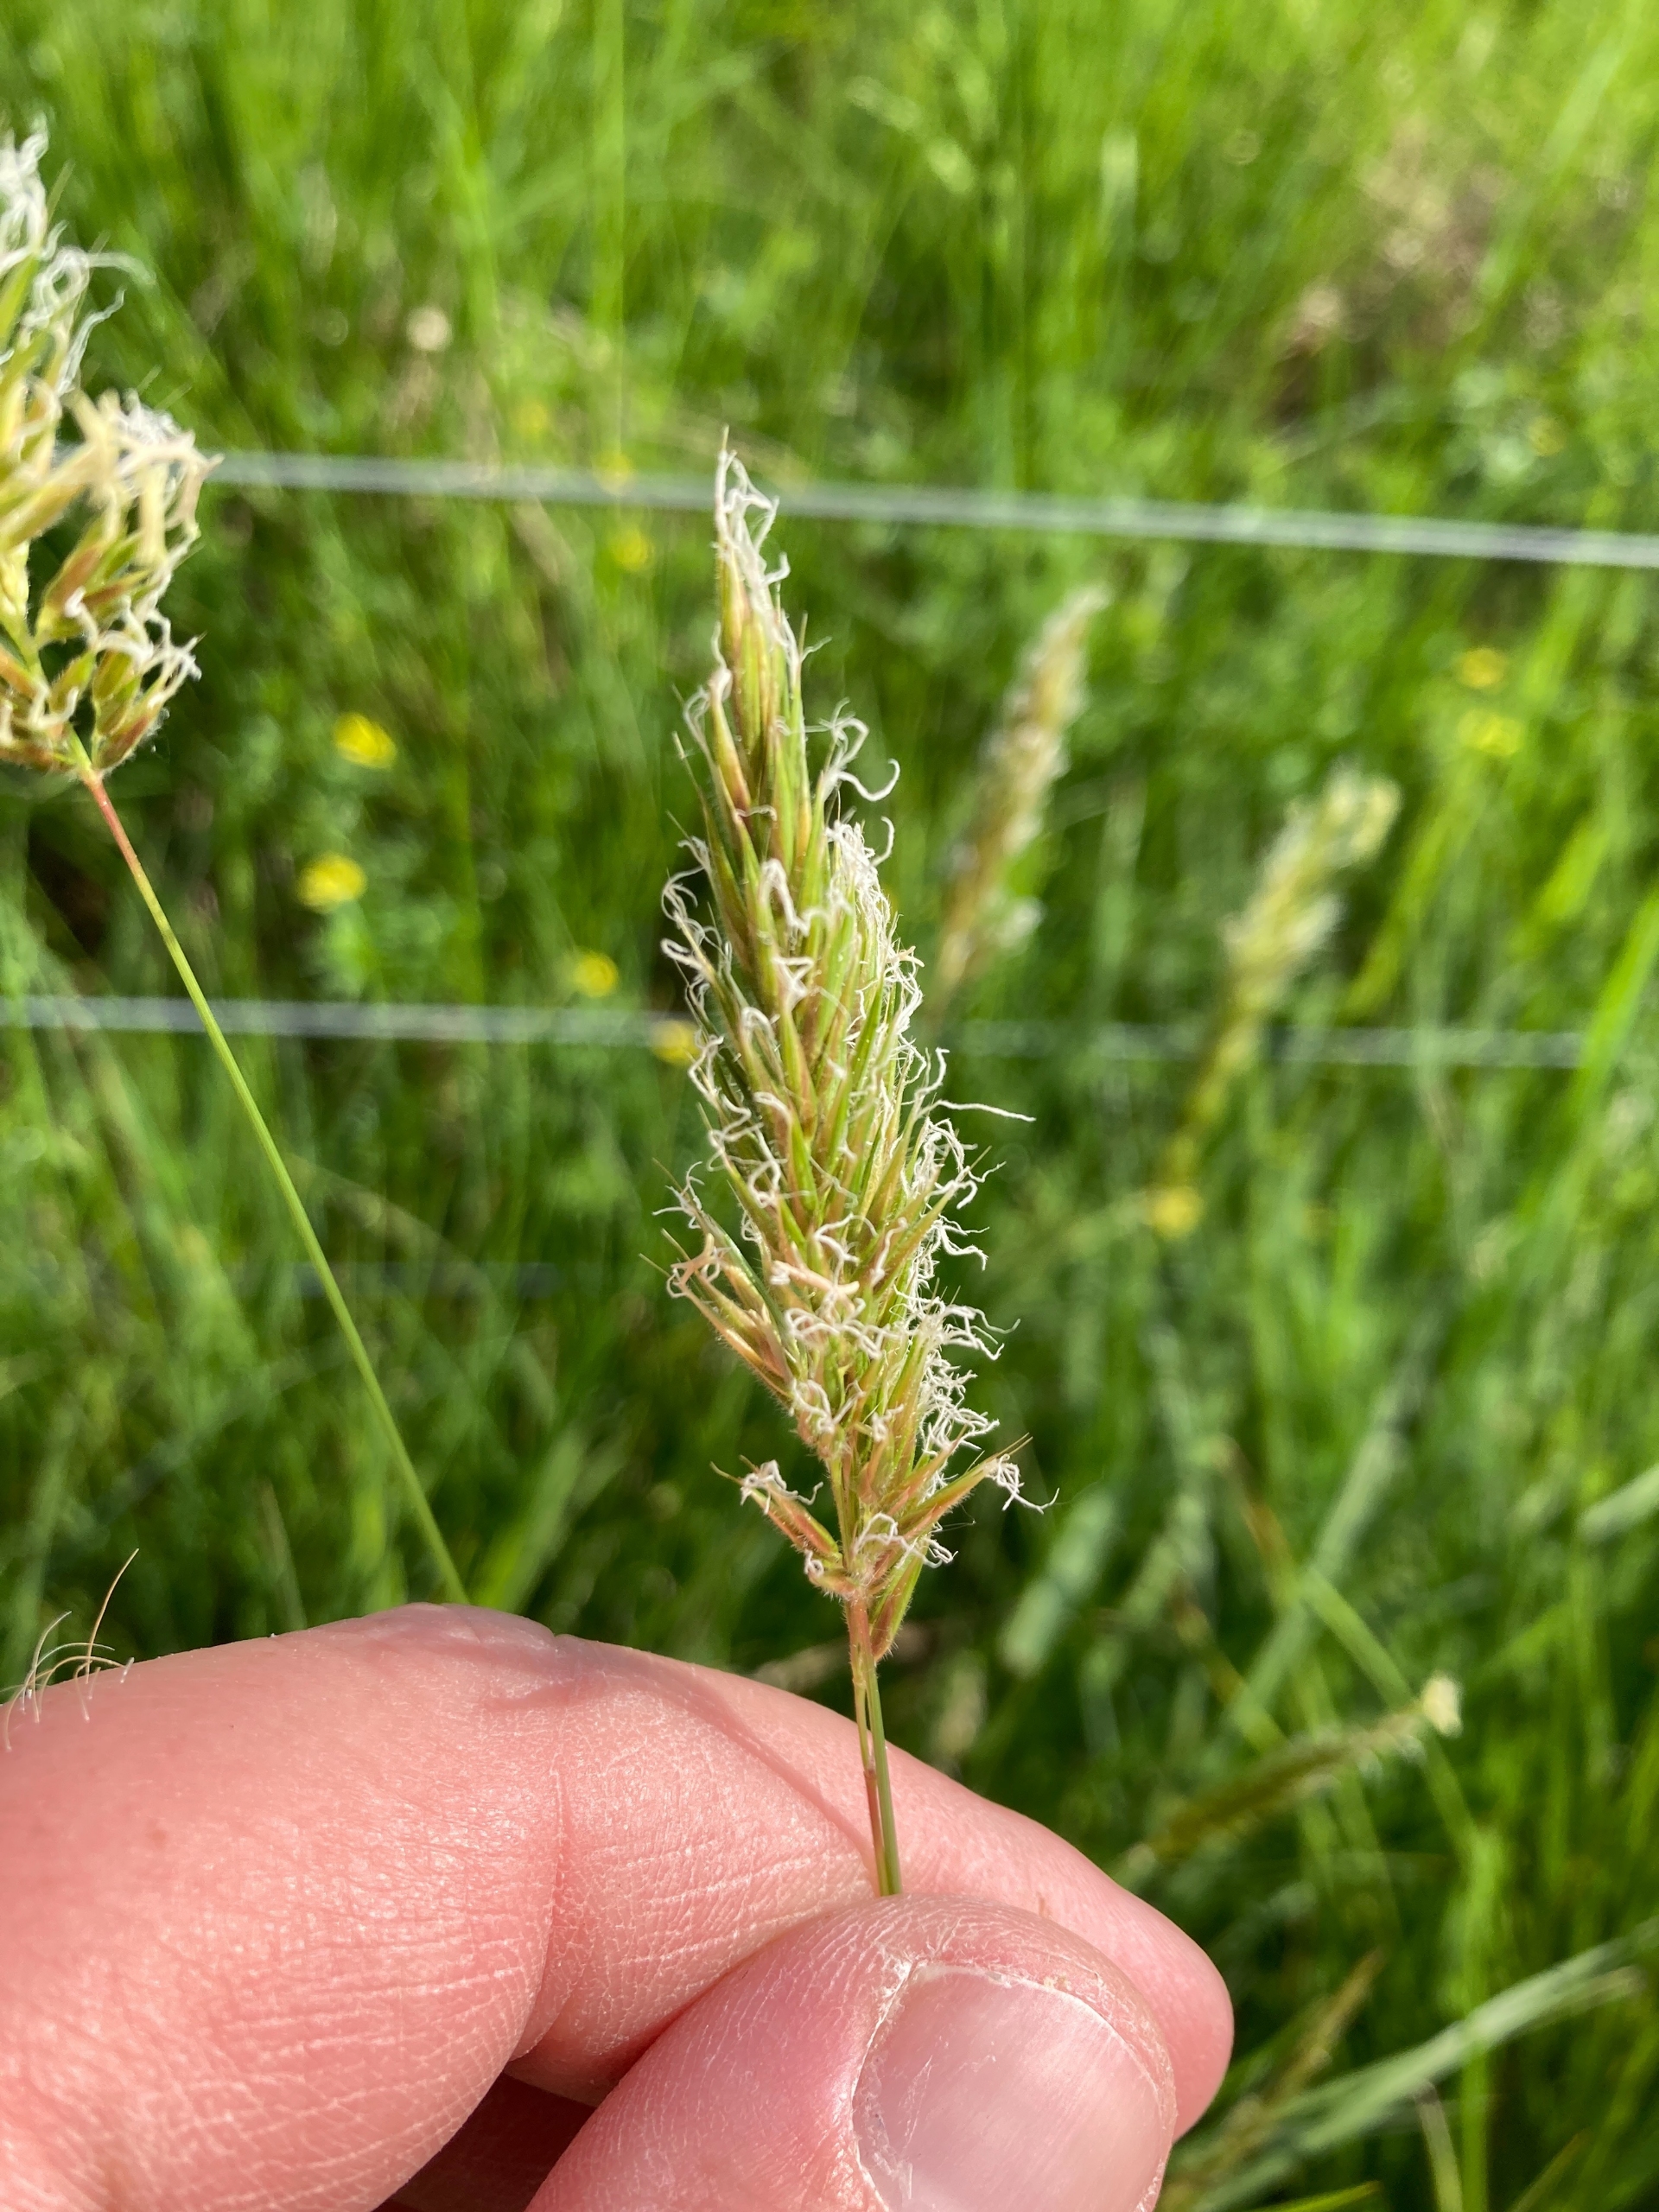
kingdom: Plantae
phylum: Tracheophyta
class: Liliopsida
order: Poales
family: Poaceae
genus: Anthoxanthum
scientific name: Anthoxanthum odoratum
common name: Vellugtende gulaks
